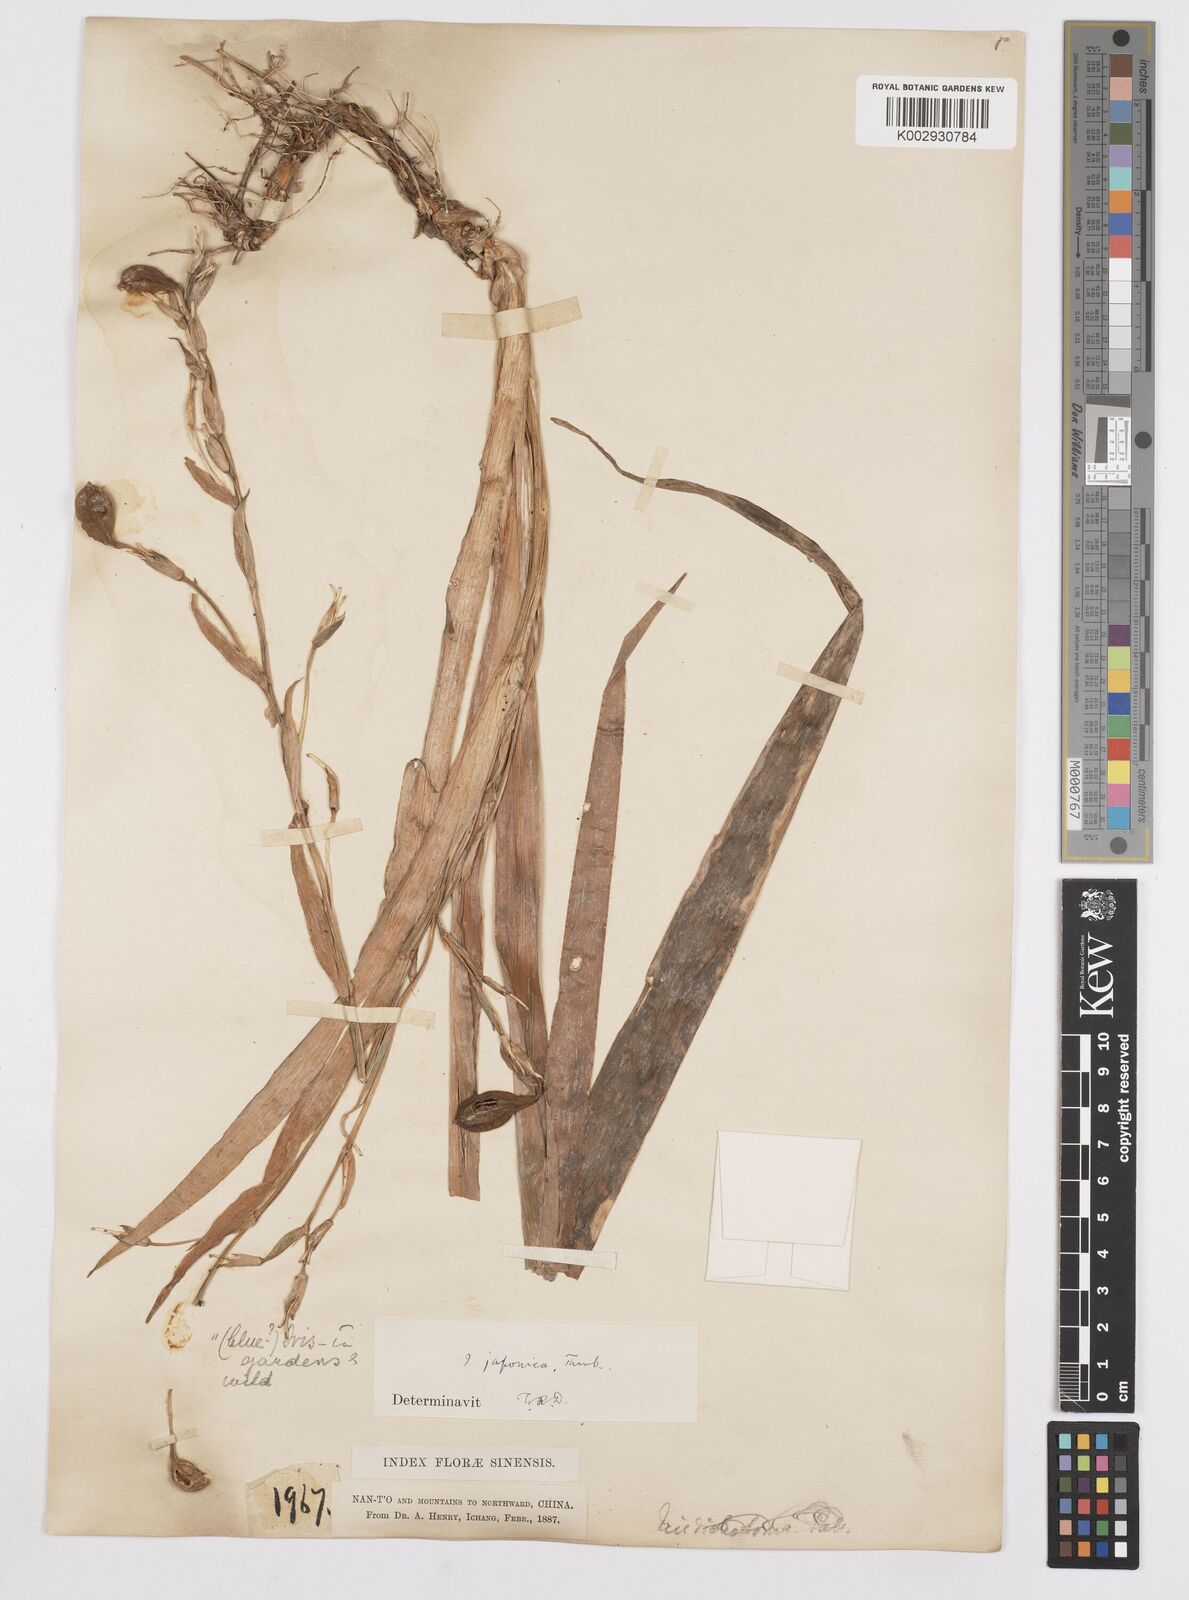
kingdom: Plantae
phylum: Tracheophyta
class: Liliopsida
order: Asparagales
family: Iridaceae
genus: Iris
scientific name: Iris japonica
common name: Butterfly-flower
